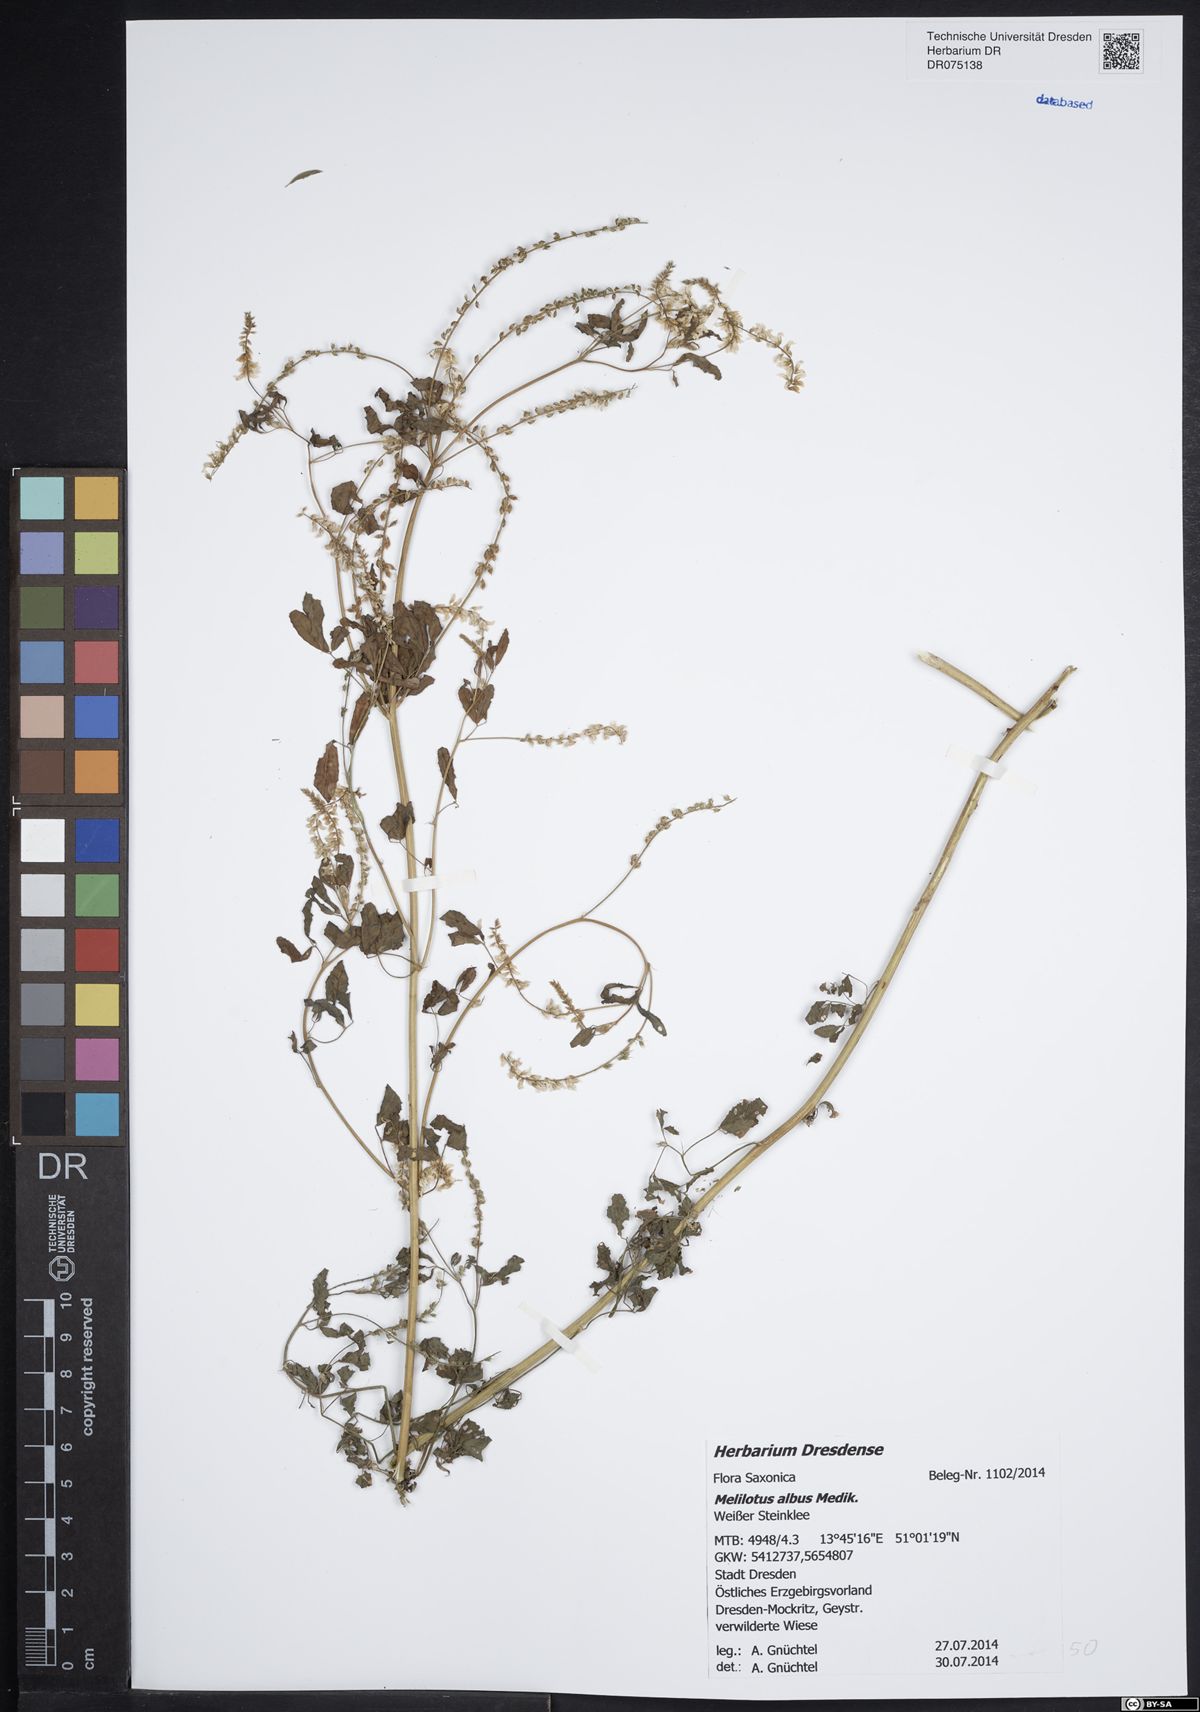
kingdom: Plantae
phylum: Tracheophyta
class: Magnoliopsida
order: Fabales
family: Fabaceae
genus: Melilotus
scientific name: Melilotus albus
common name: White melilot
